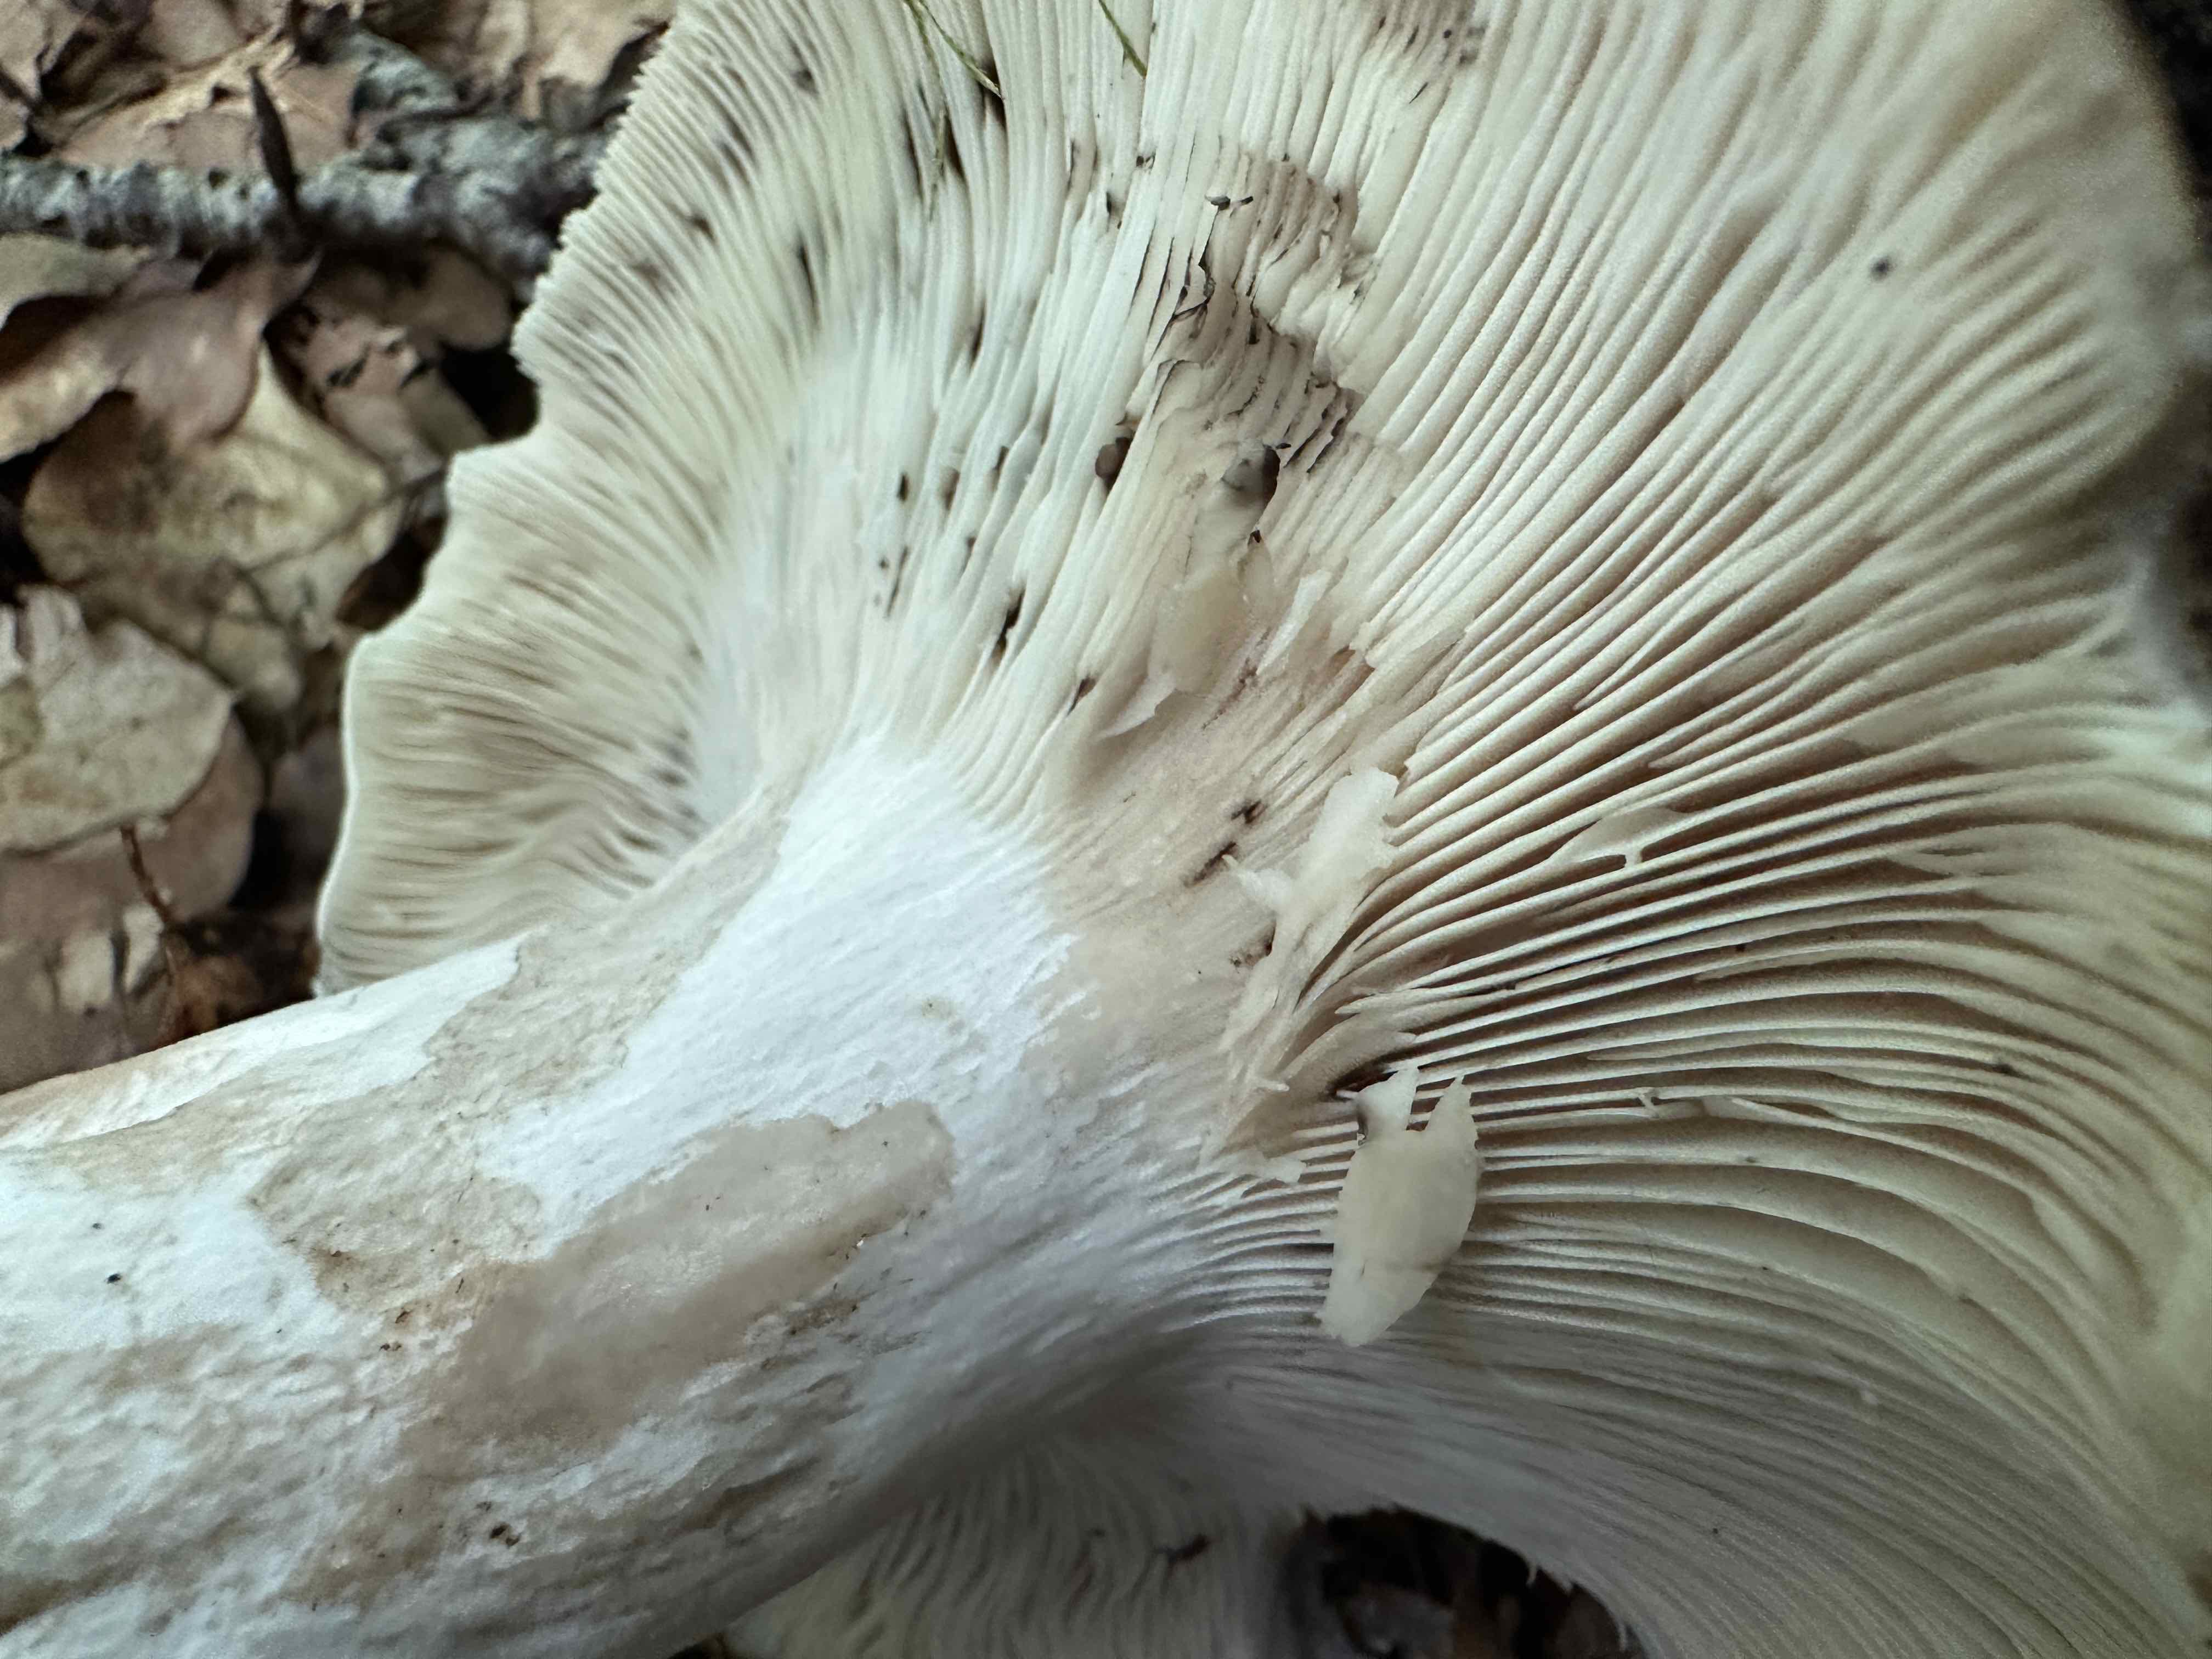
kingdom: Fungi
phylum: Basidiomycota
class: Agaricomycetes
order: Russulales
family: Russulaceae
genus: Russula
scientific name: Russula acrifolia
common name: skarpbladet skørhat
